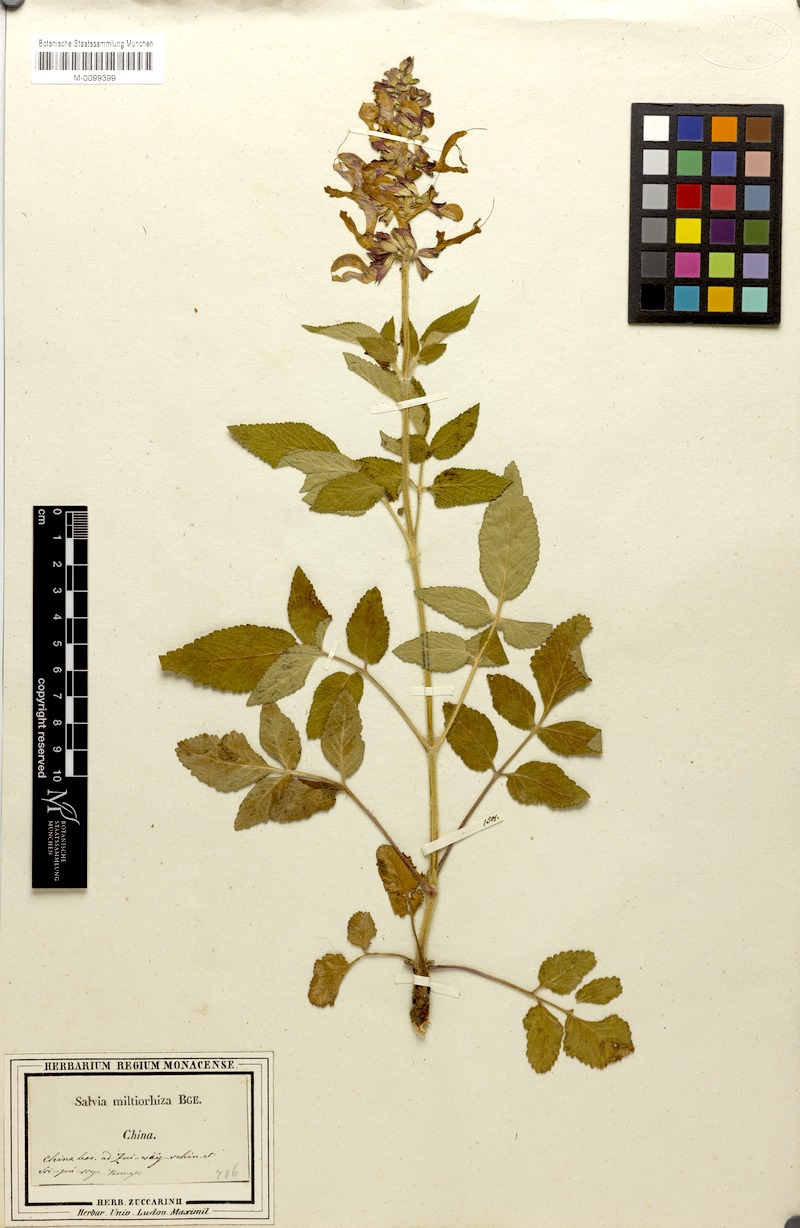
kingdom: Plantae
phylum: Tracheophyta
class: Magnoliopsida
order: Lamiales
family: Lamiaceae
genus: Salvia
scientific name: Salvia miltiorrhiza
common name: Redroot sage
